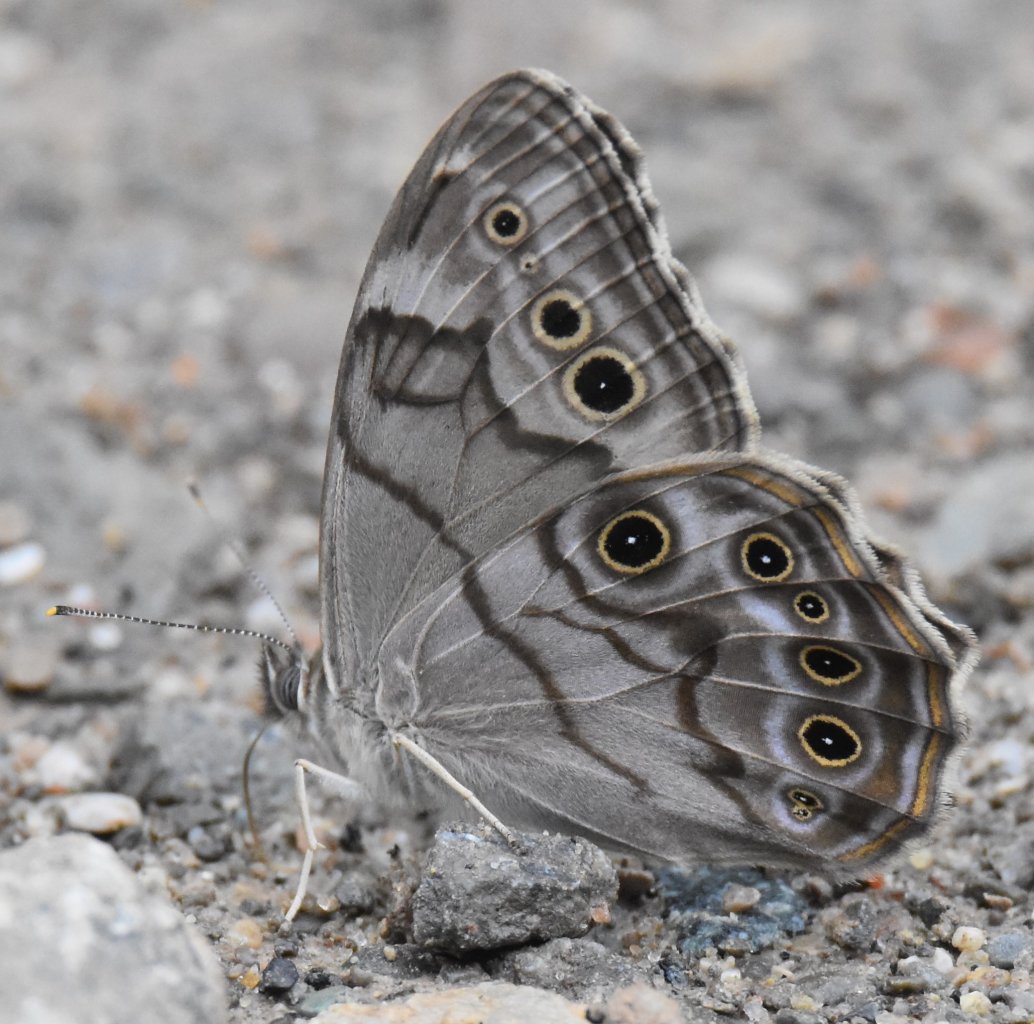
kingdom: Animalia
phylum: Arthropoda
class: Insecta
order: Lepidoptera
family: Nymphalidae
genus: Lethe
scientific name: Lethe anthedon
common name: Northern Pearly-Eye
